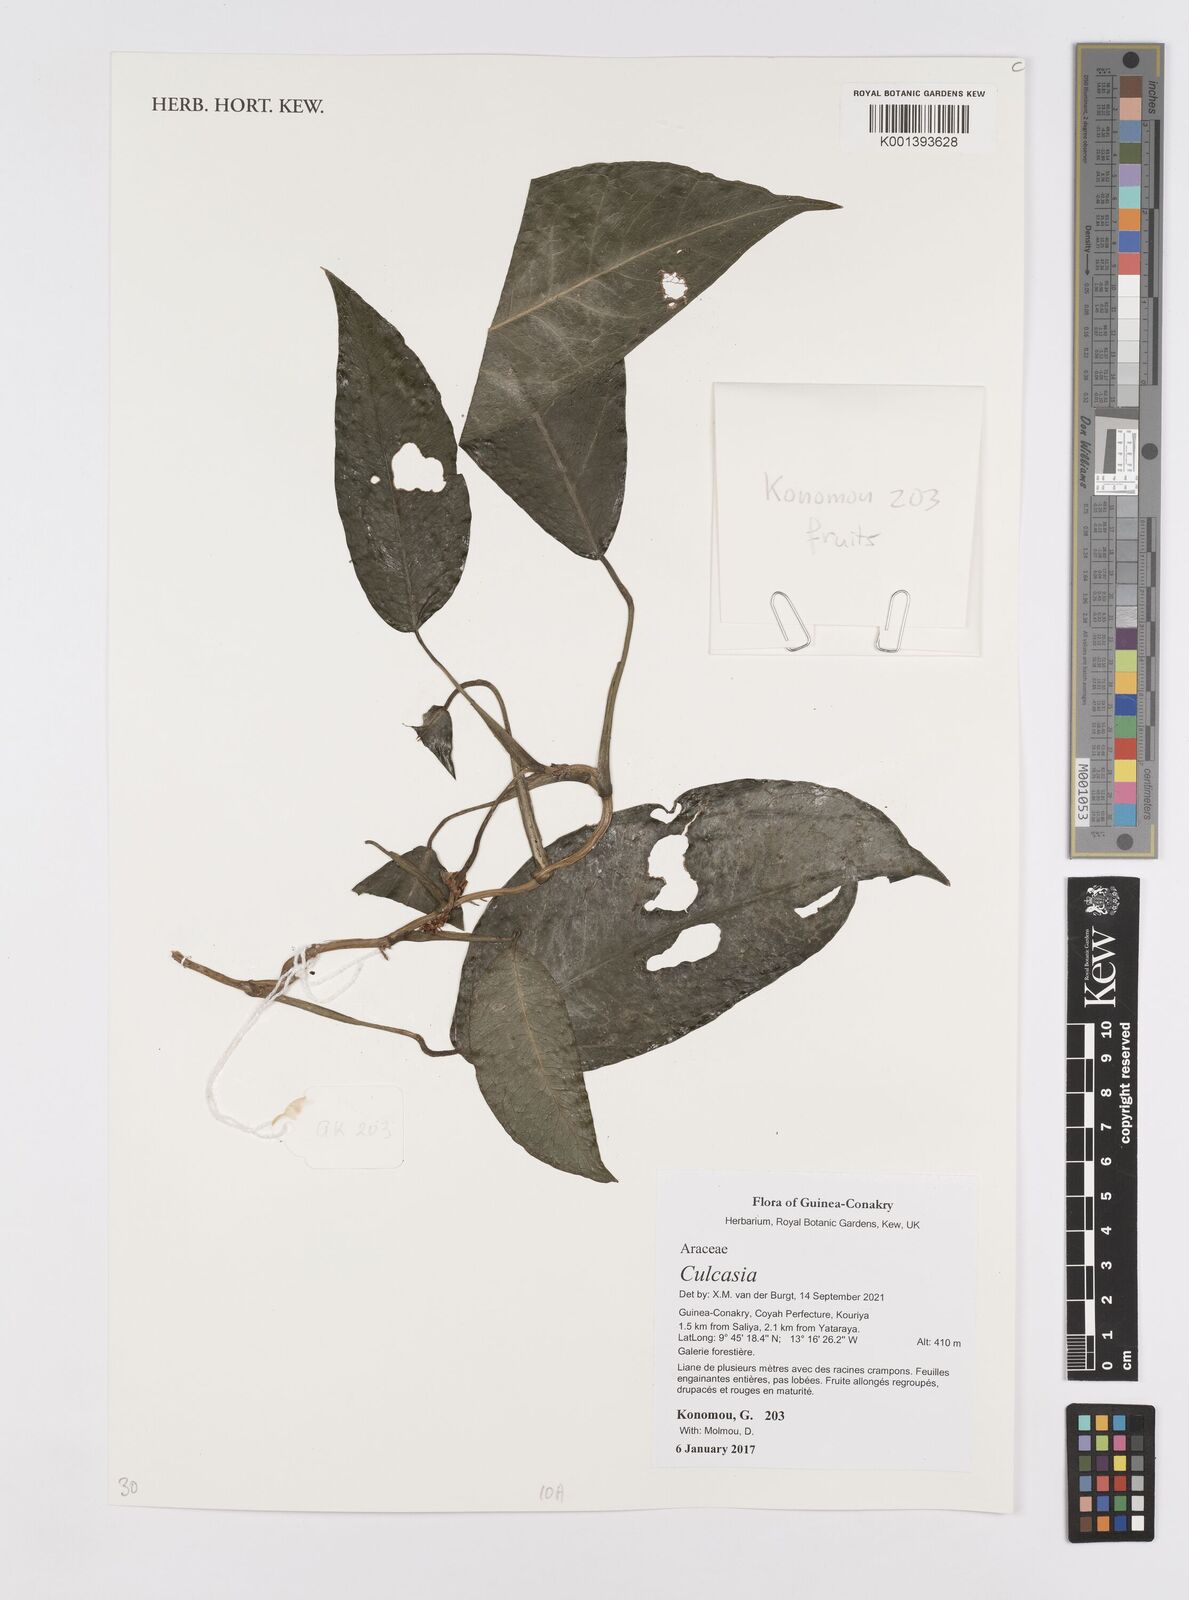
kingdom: Plantae
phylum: Tracheophyta
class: Liliopsida
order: Alismatales
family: Araceae
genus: Culcasia
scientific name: Culcasia
